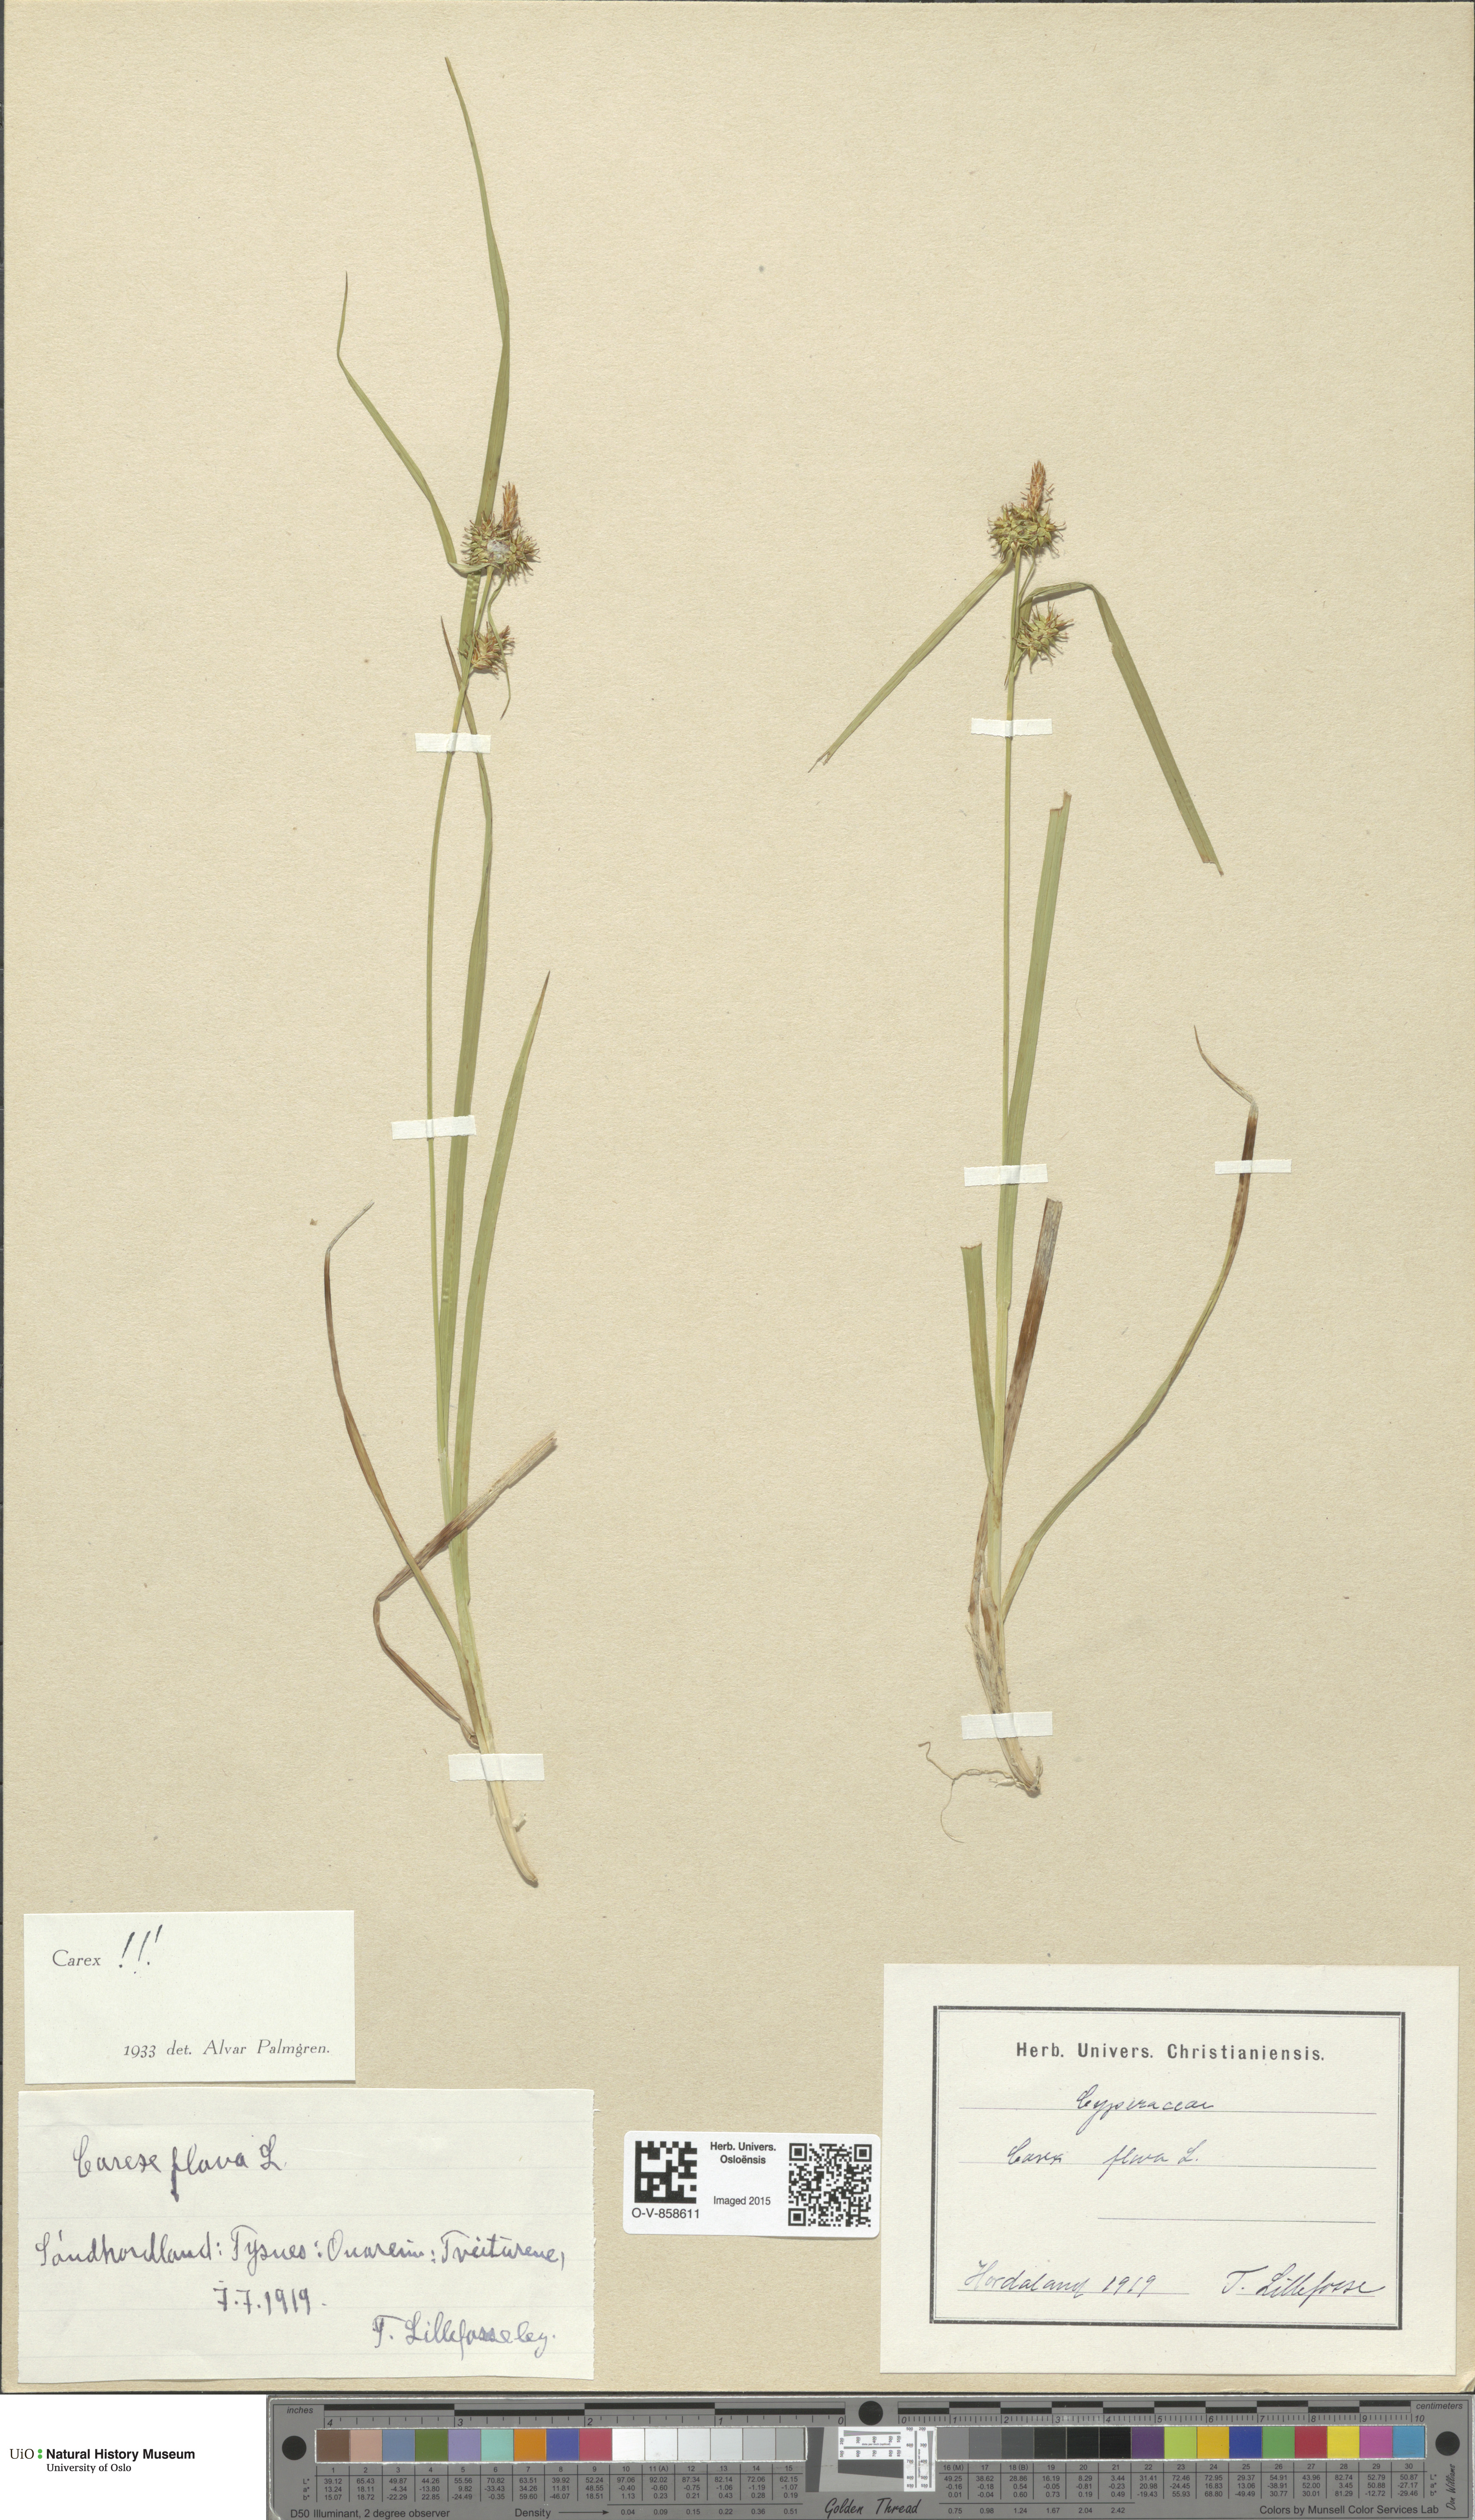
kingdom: Plantae
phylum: Tracheophyta
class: Liliopsida
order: Poales
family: Cyperaceae
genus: Carex
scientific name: Carex flava
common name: Large yellow-sedge
